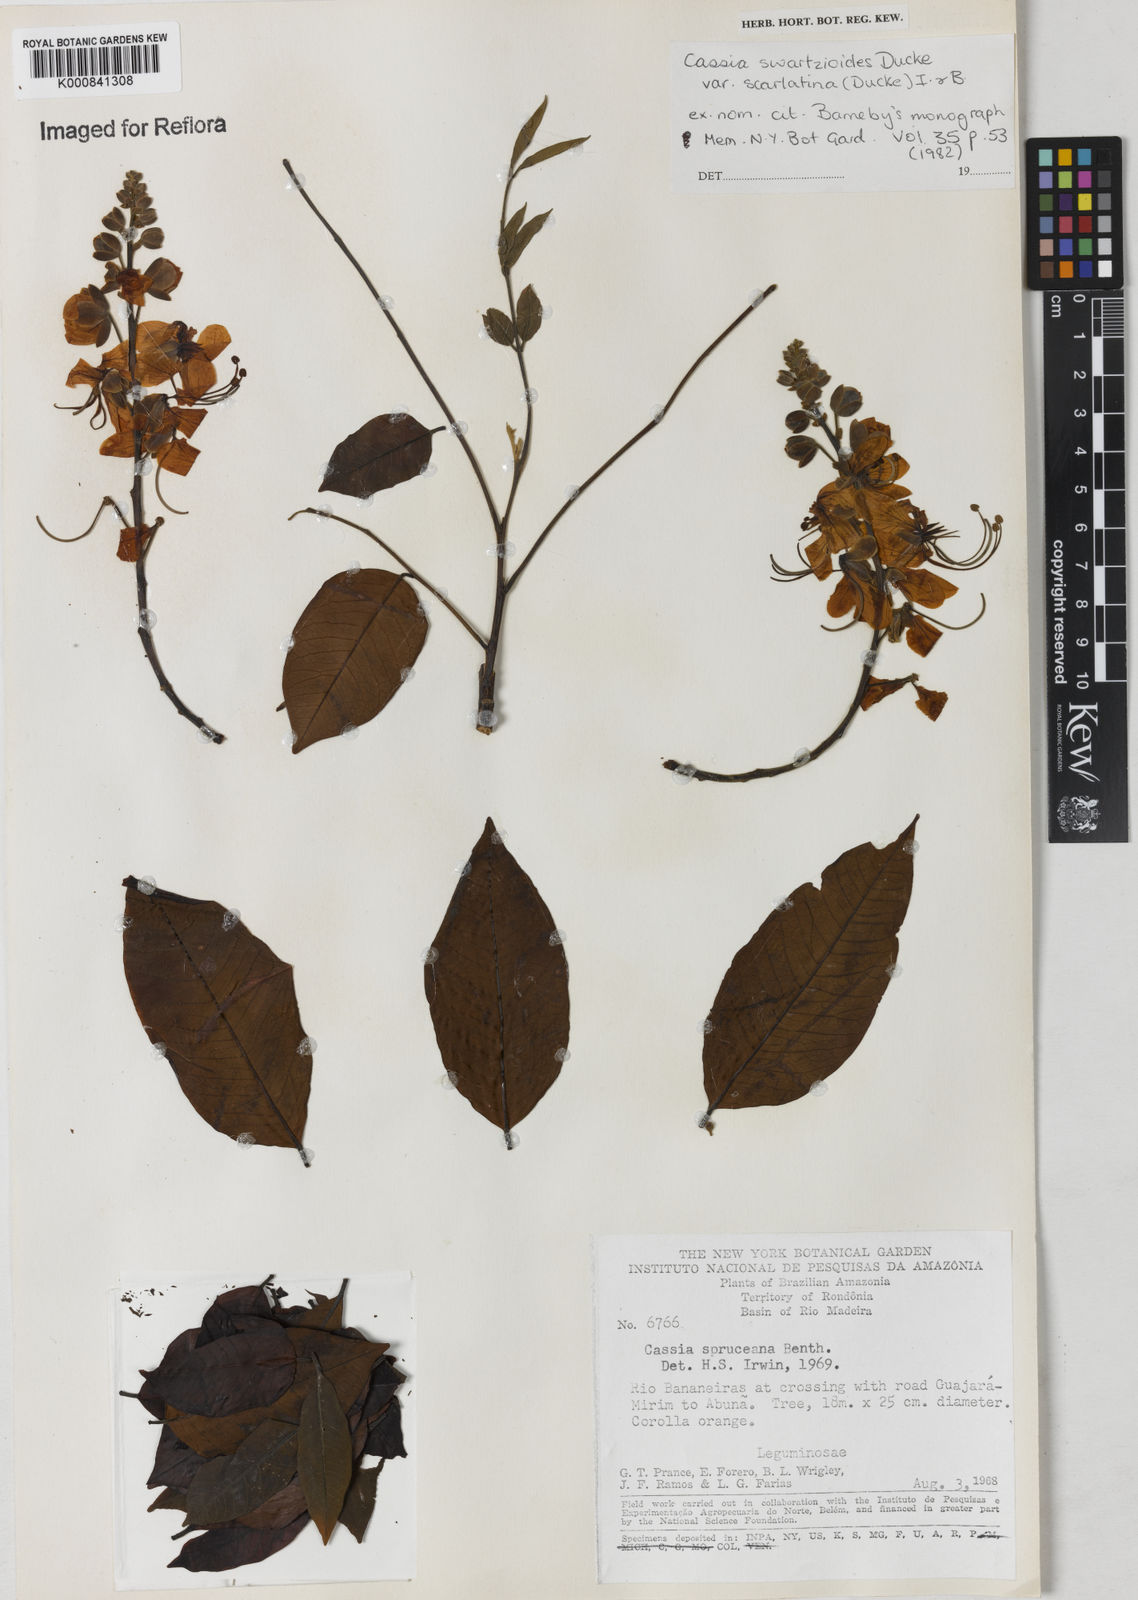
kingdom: Plantae
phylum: Tracheophyta
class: Magnoliopsida
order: Fabales
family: Fabaceae
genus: Cassia
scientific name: Cassia swartzioides
